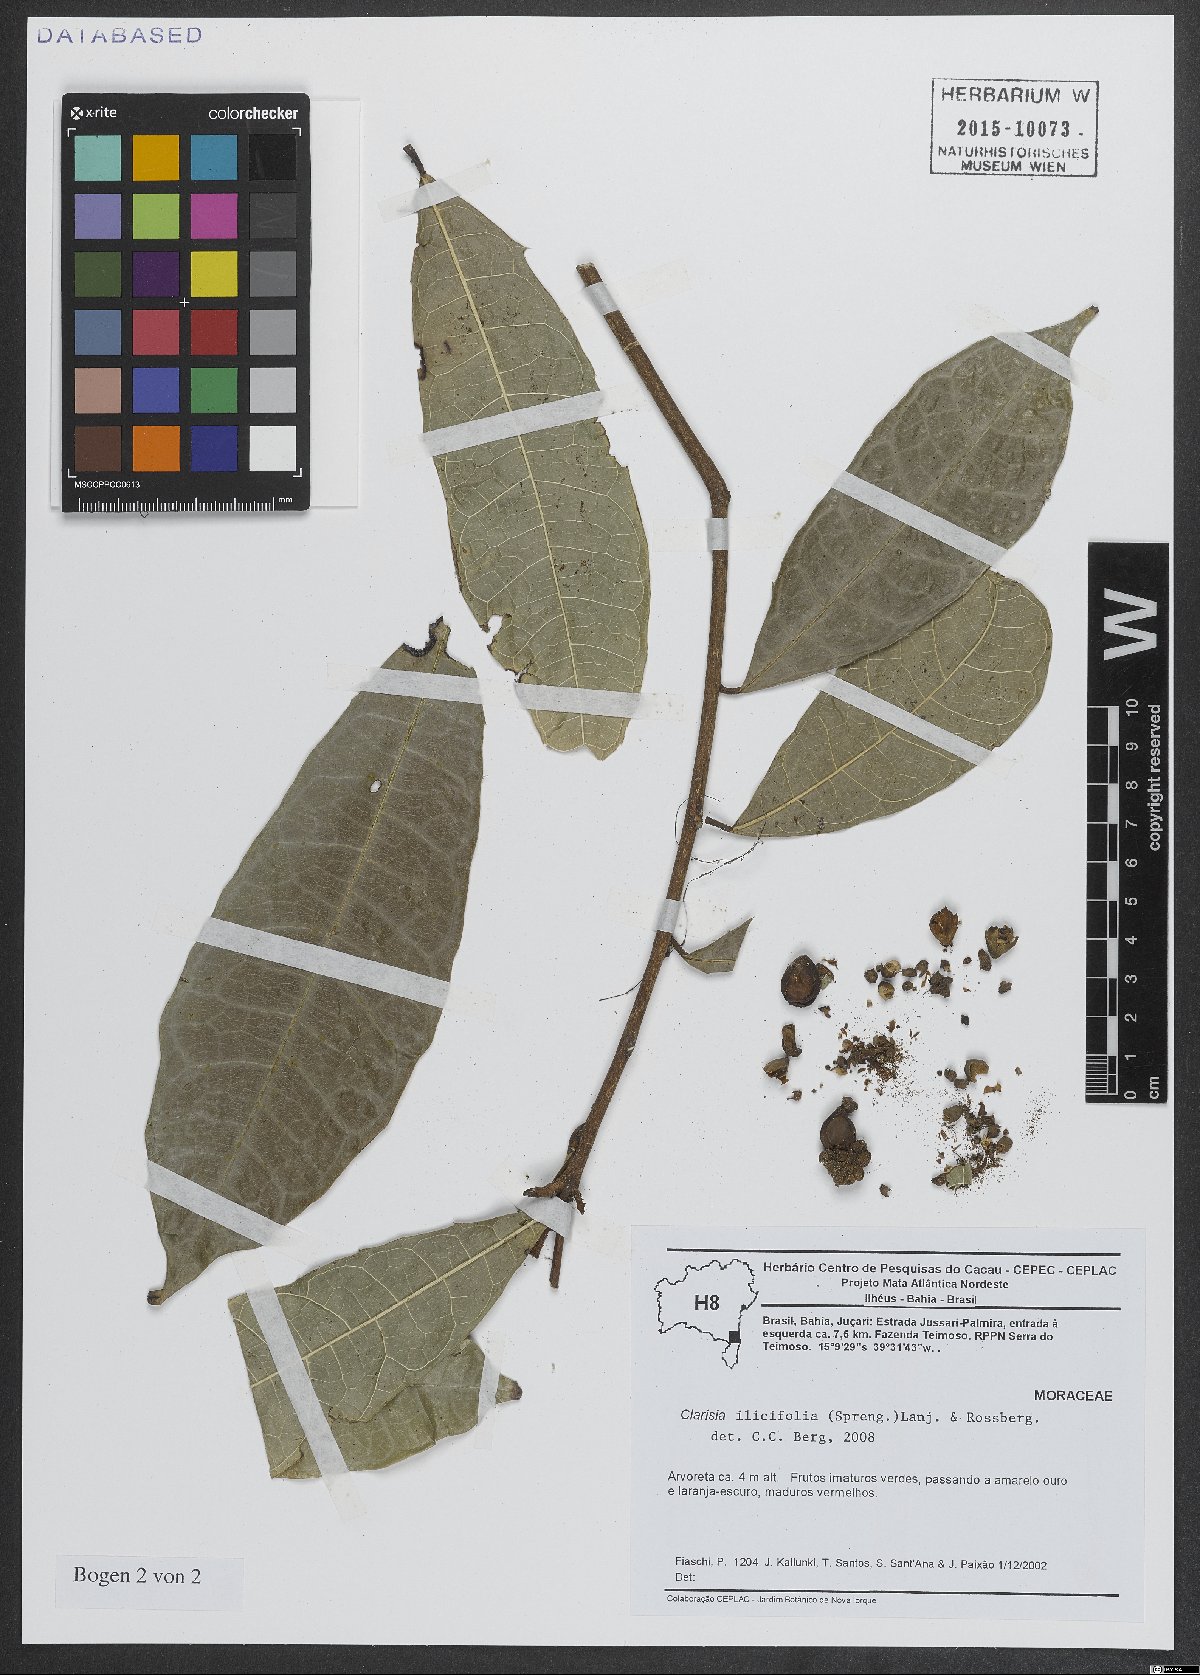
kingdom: Plantae
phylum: Tracheophyta
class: Magnoliopsida
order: Rosales
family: Moraceae
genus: Clarisia
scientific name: Clarisia ilicifolia
